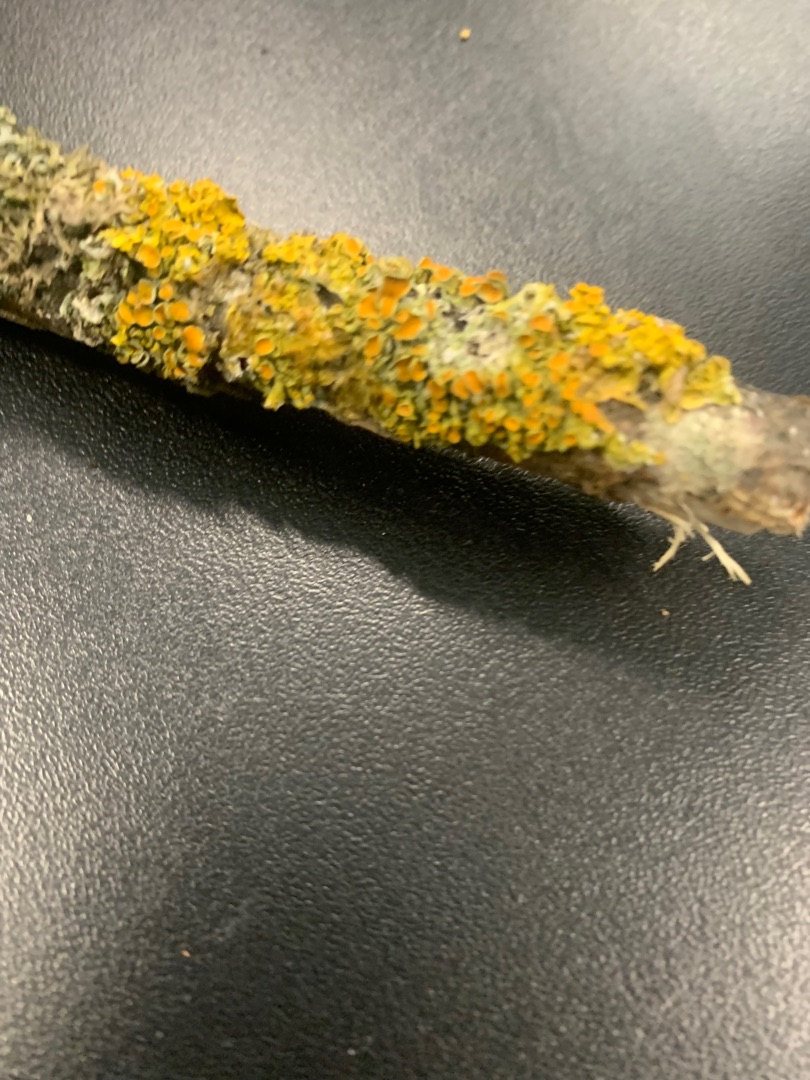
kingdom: Fungi
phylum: Ascomycota
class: Lecanoromycetes
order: Teloschistales
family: Teloschistaceae
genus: Xanthoria
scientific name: Xanthoria parietina
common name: Almindelig væggelav
